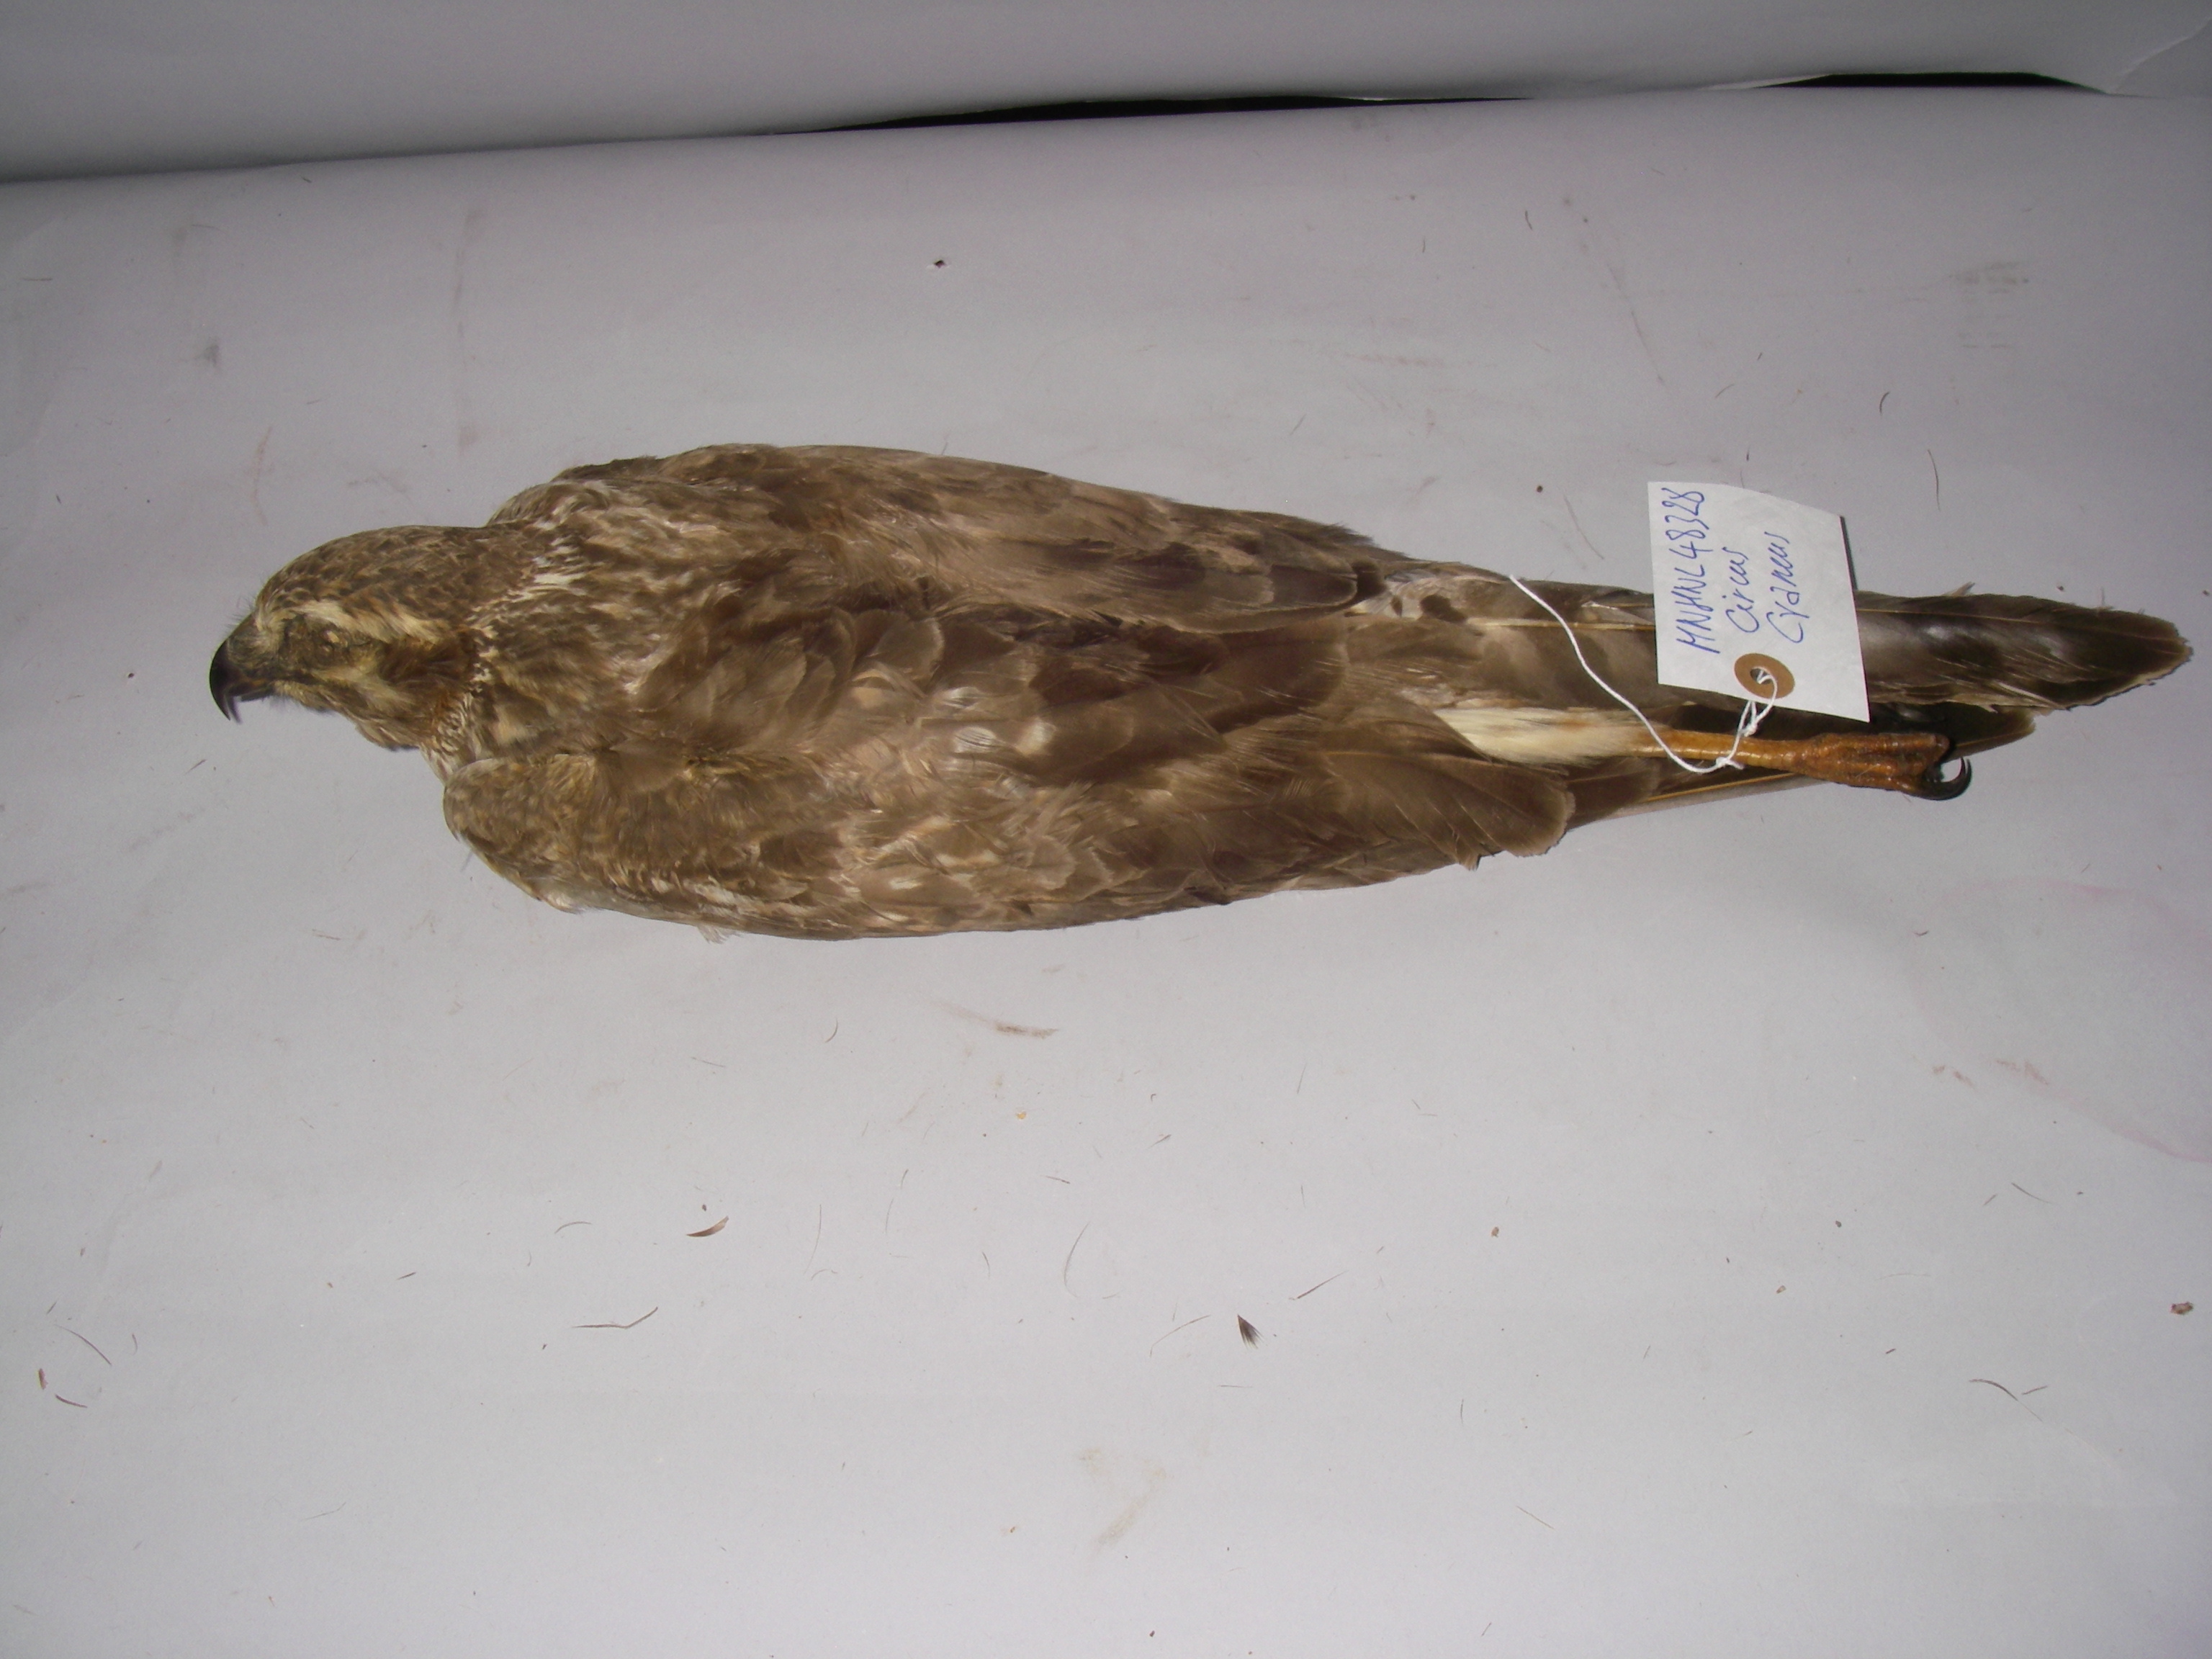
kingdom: Animalia
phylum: Chordata
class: Aves
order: Accipitriformes
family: Accipitridae
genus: Circus
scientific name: Circus cyaneus
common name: Hen harrier
